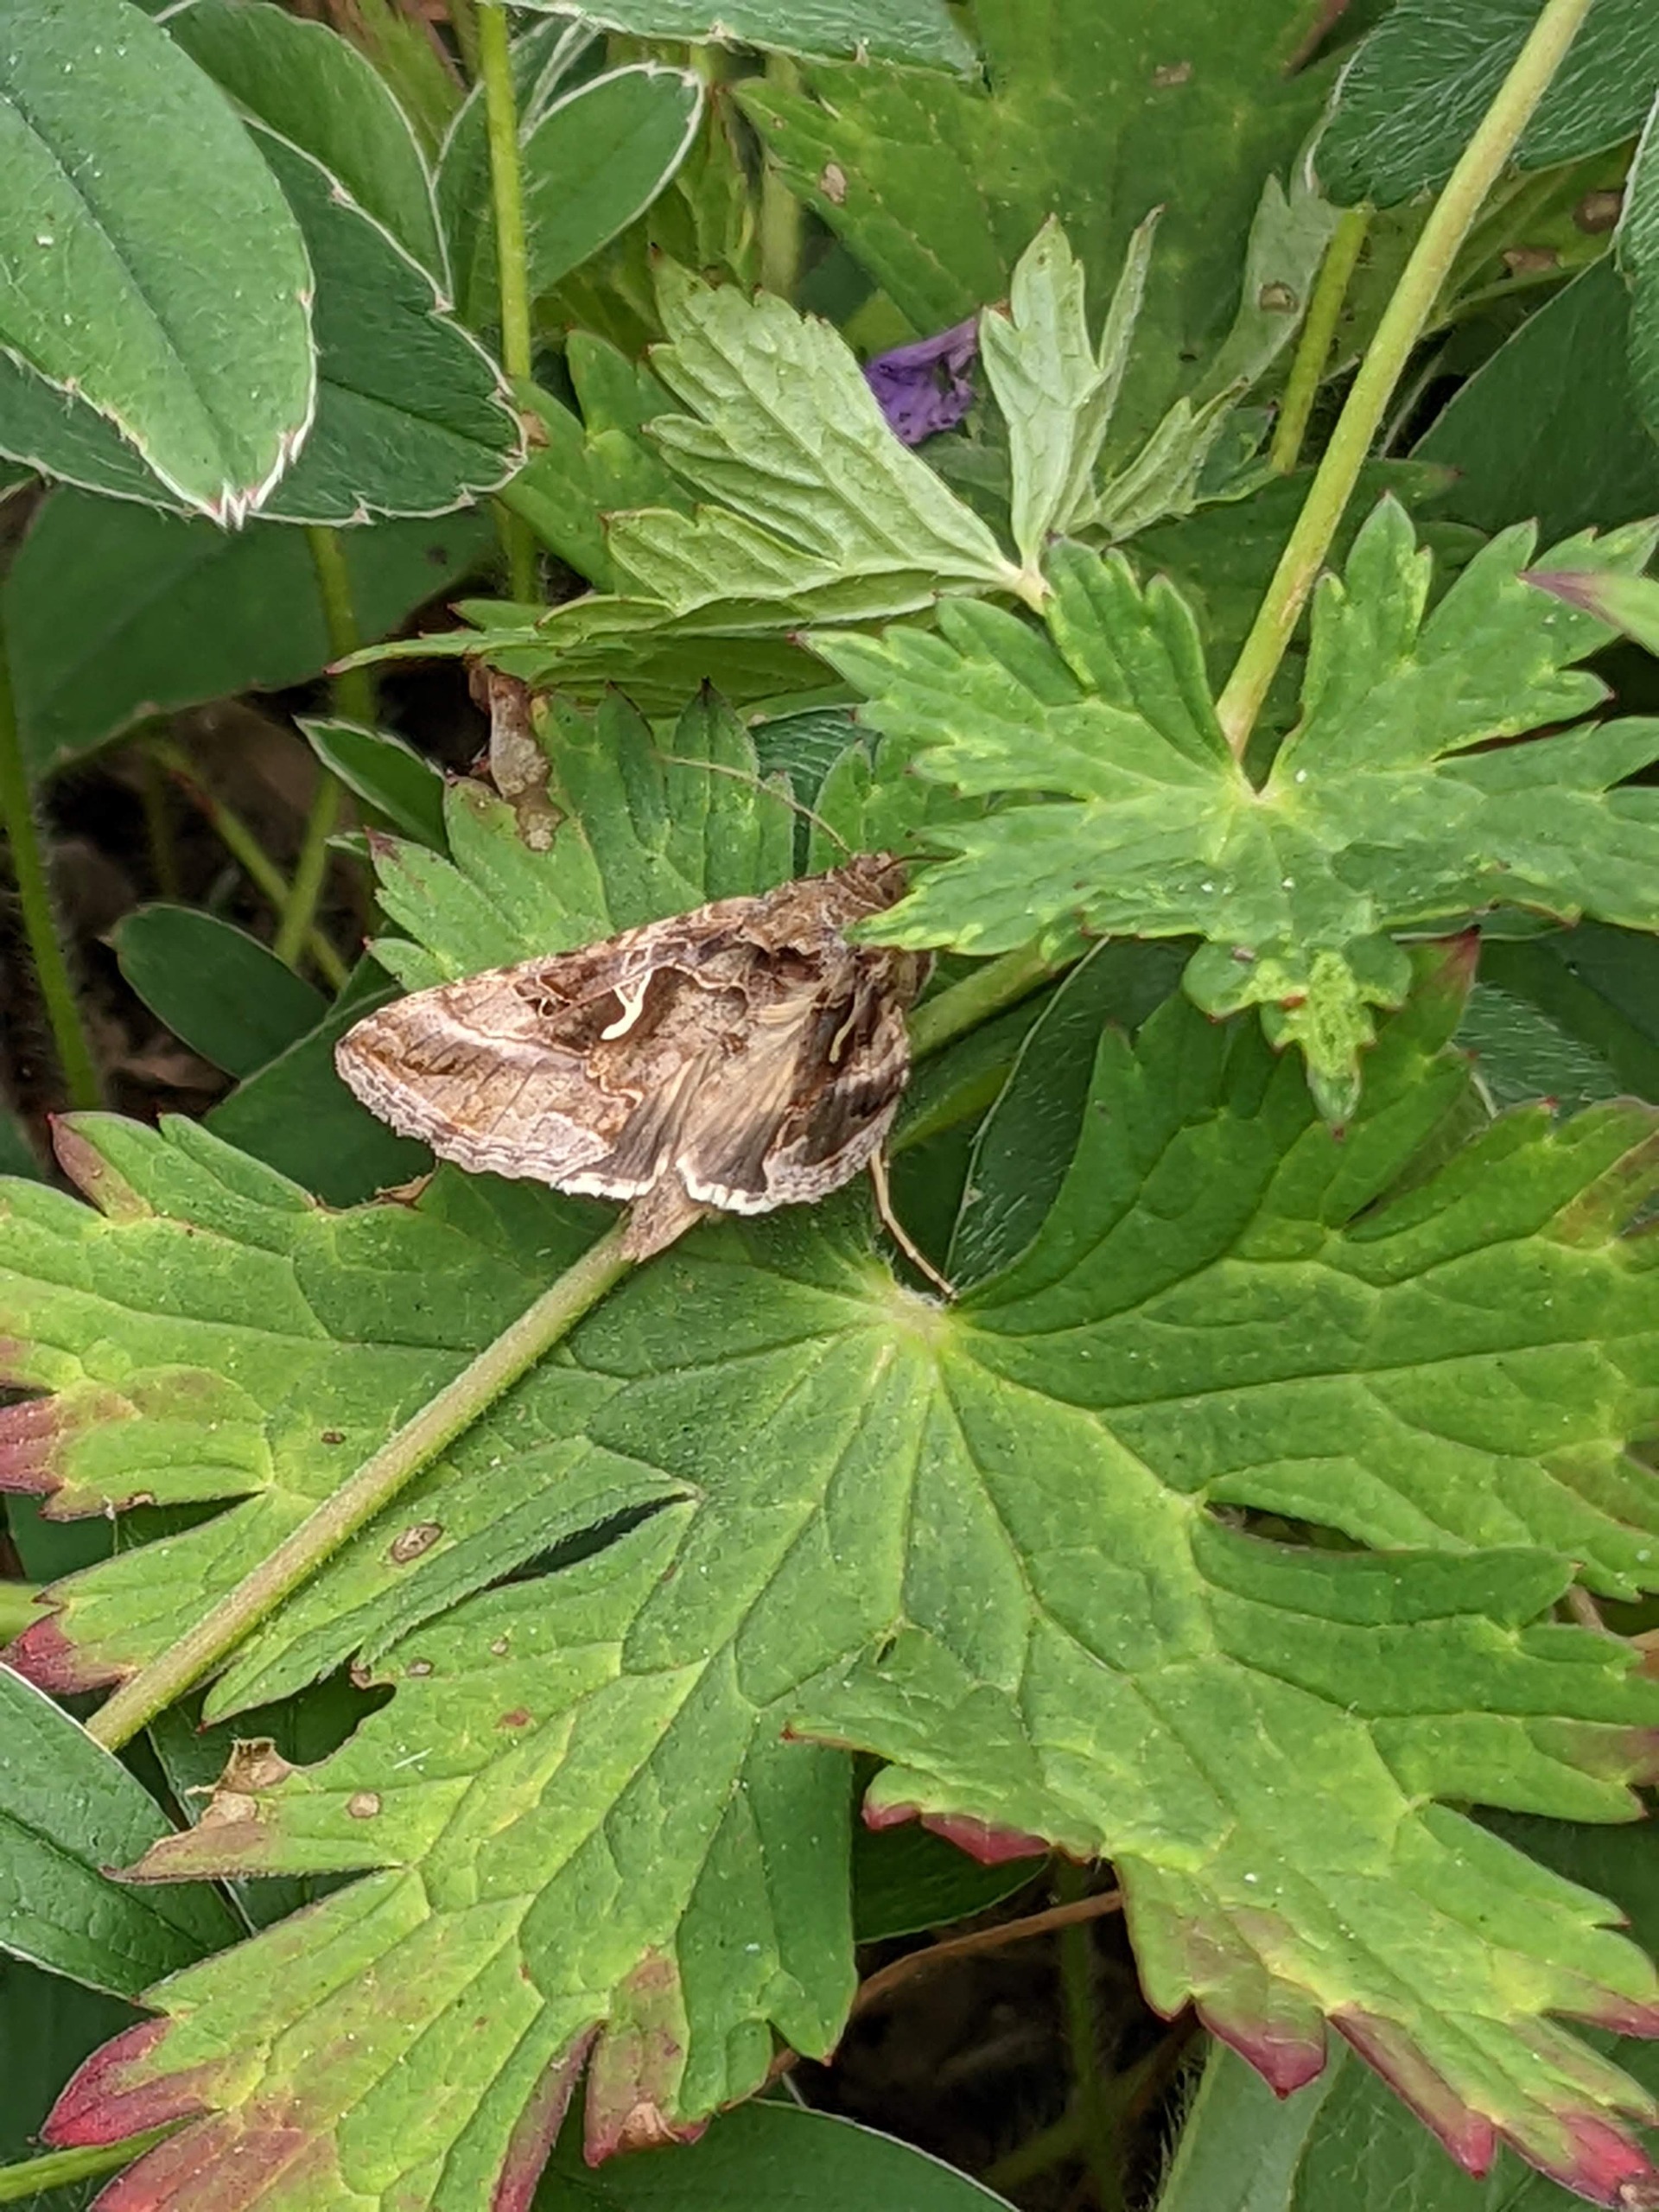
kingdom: Animalia
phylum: Arthropoda
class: Insecta
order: Lepidoptera
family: Noctuidae
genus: Autographa
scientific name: Autographa gamma
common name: Gammaugle
